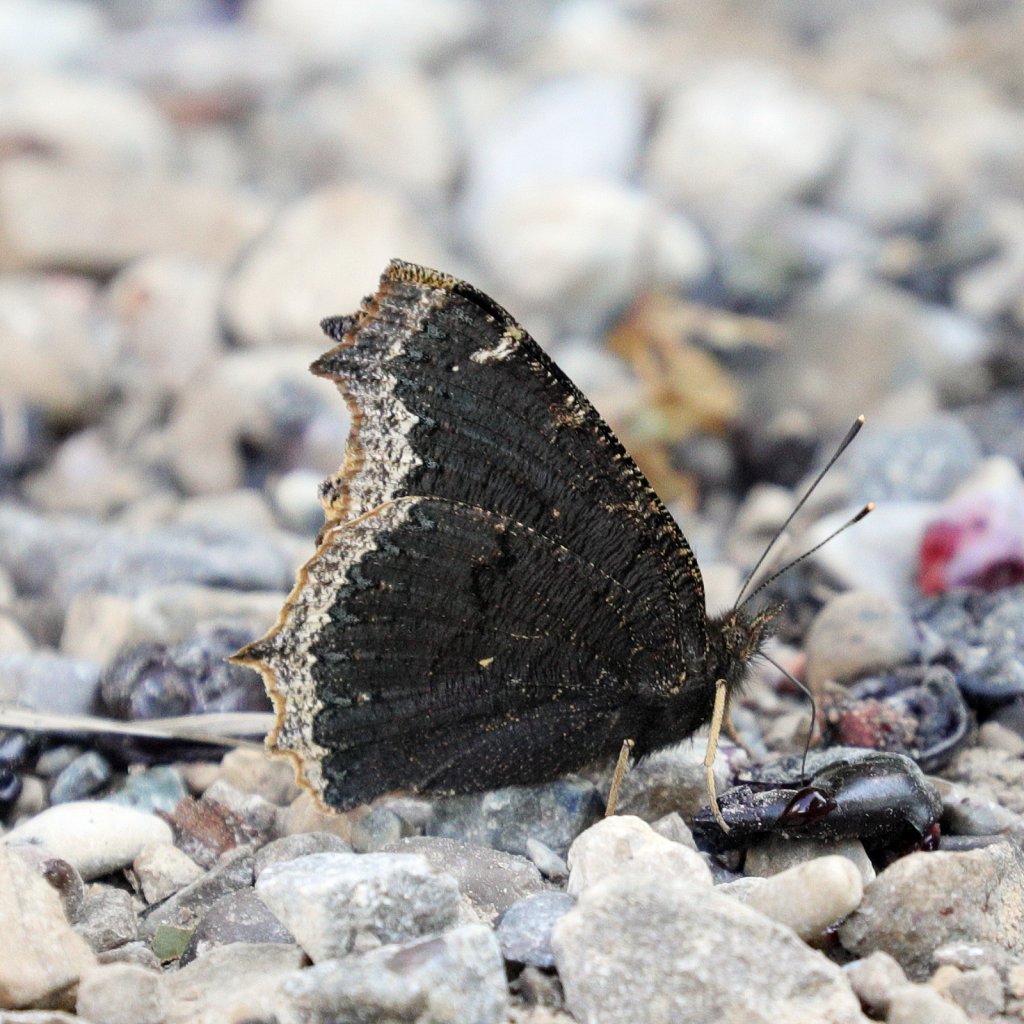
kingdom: Animalia
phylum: Arthropoda
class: Insecta
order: Lepidoptera
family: Nymphalidae
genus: Nymphalis
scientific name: Nymphalis antiopa
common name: Mourning Cloak
